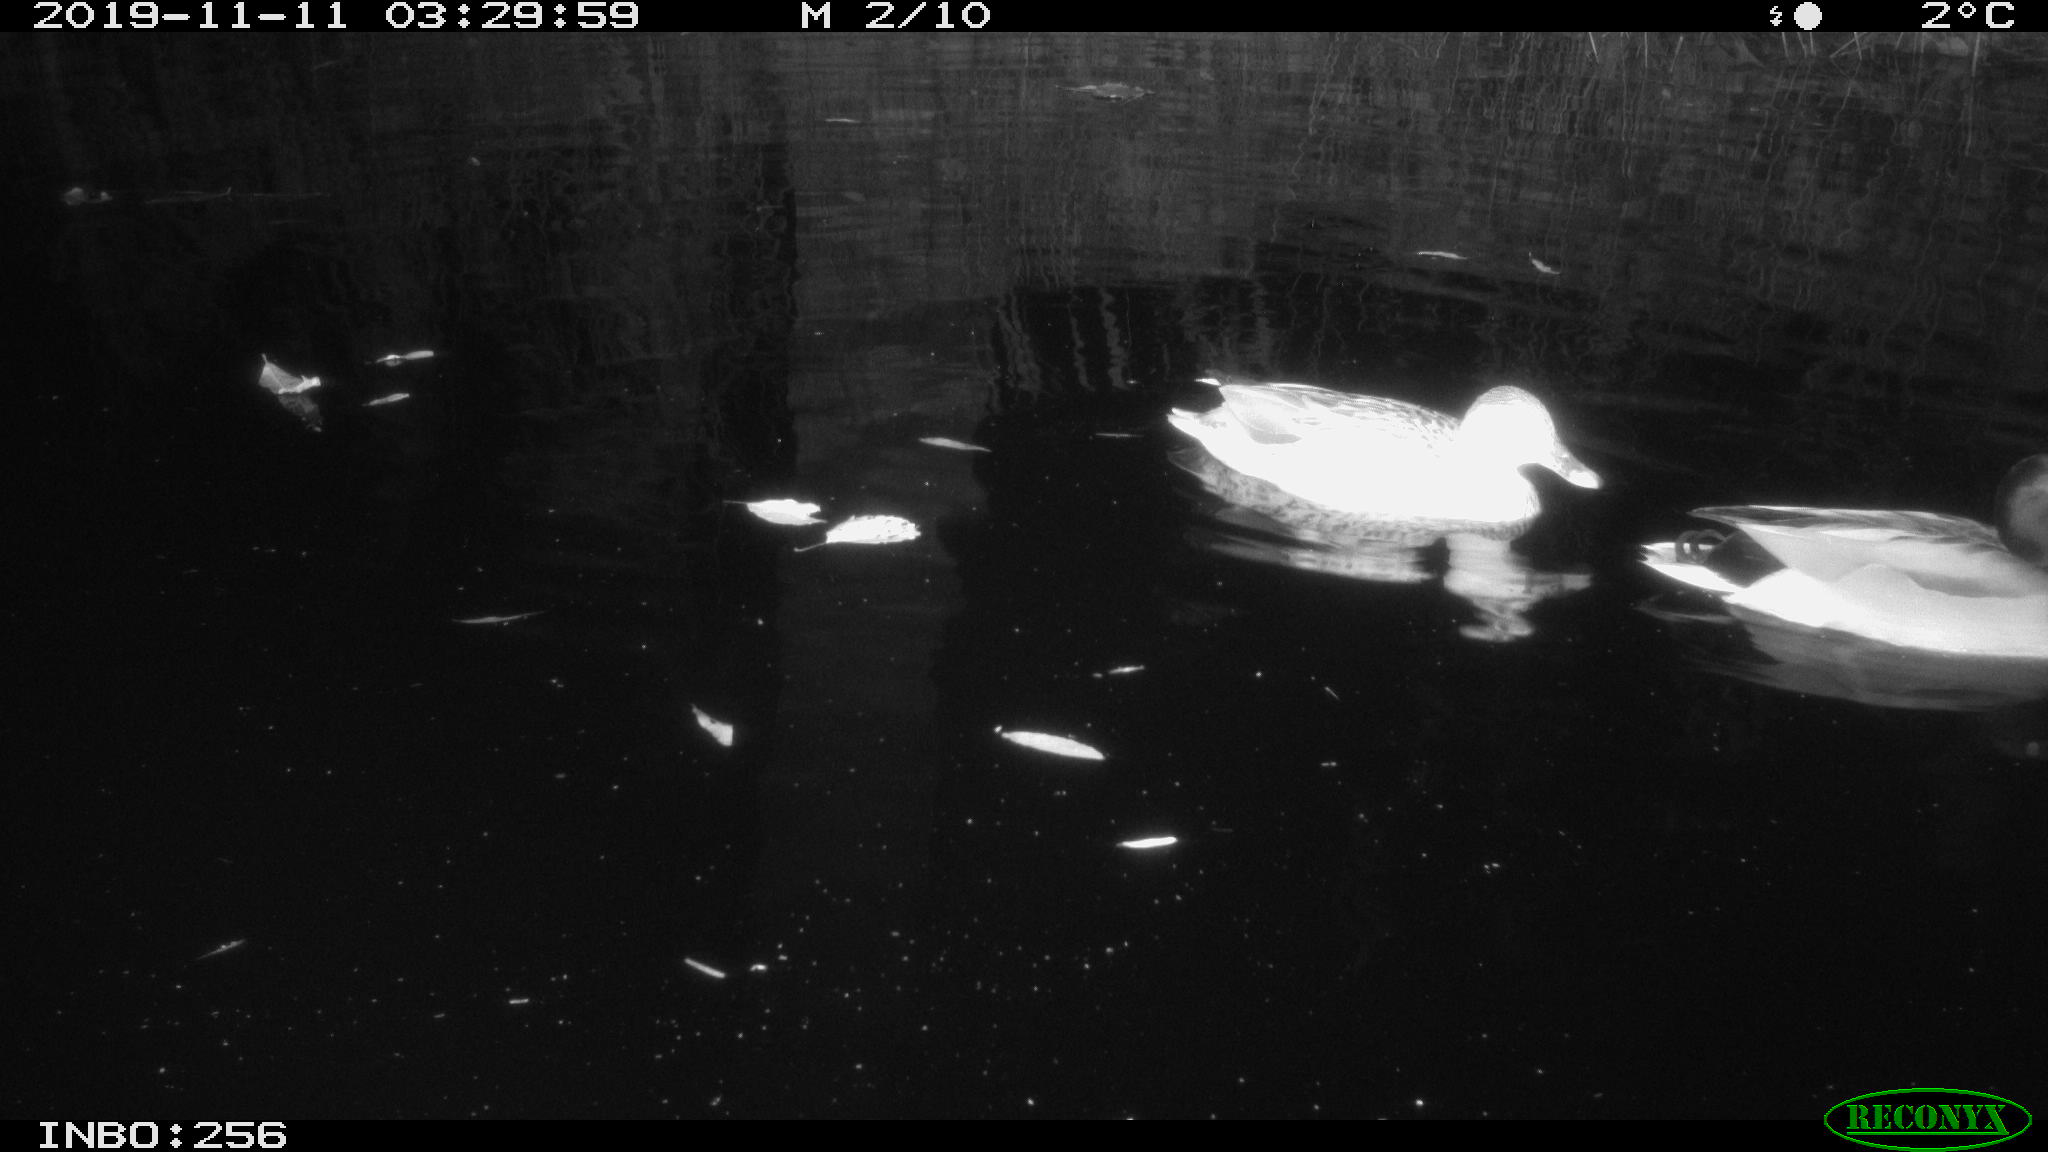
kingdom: Animalia
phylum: Chordata
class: Aves
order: Anseriformes
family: Anatidae
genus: Anas
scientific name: Anas platyrhynchos
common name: Mallard
